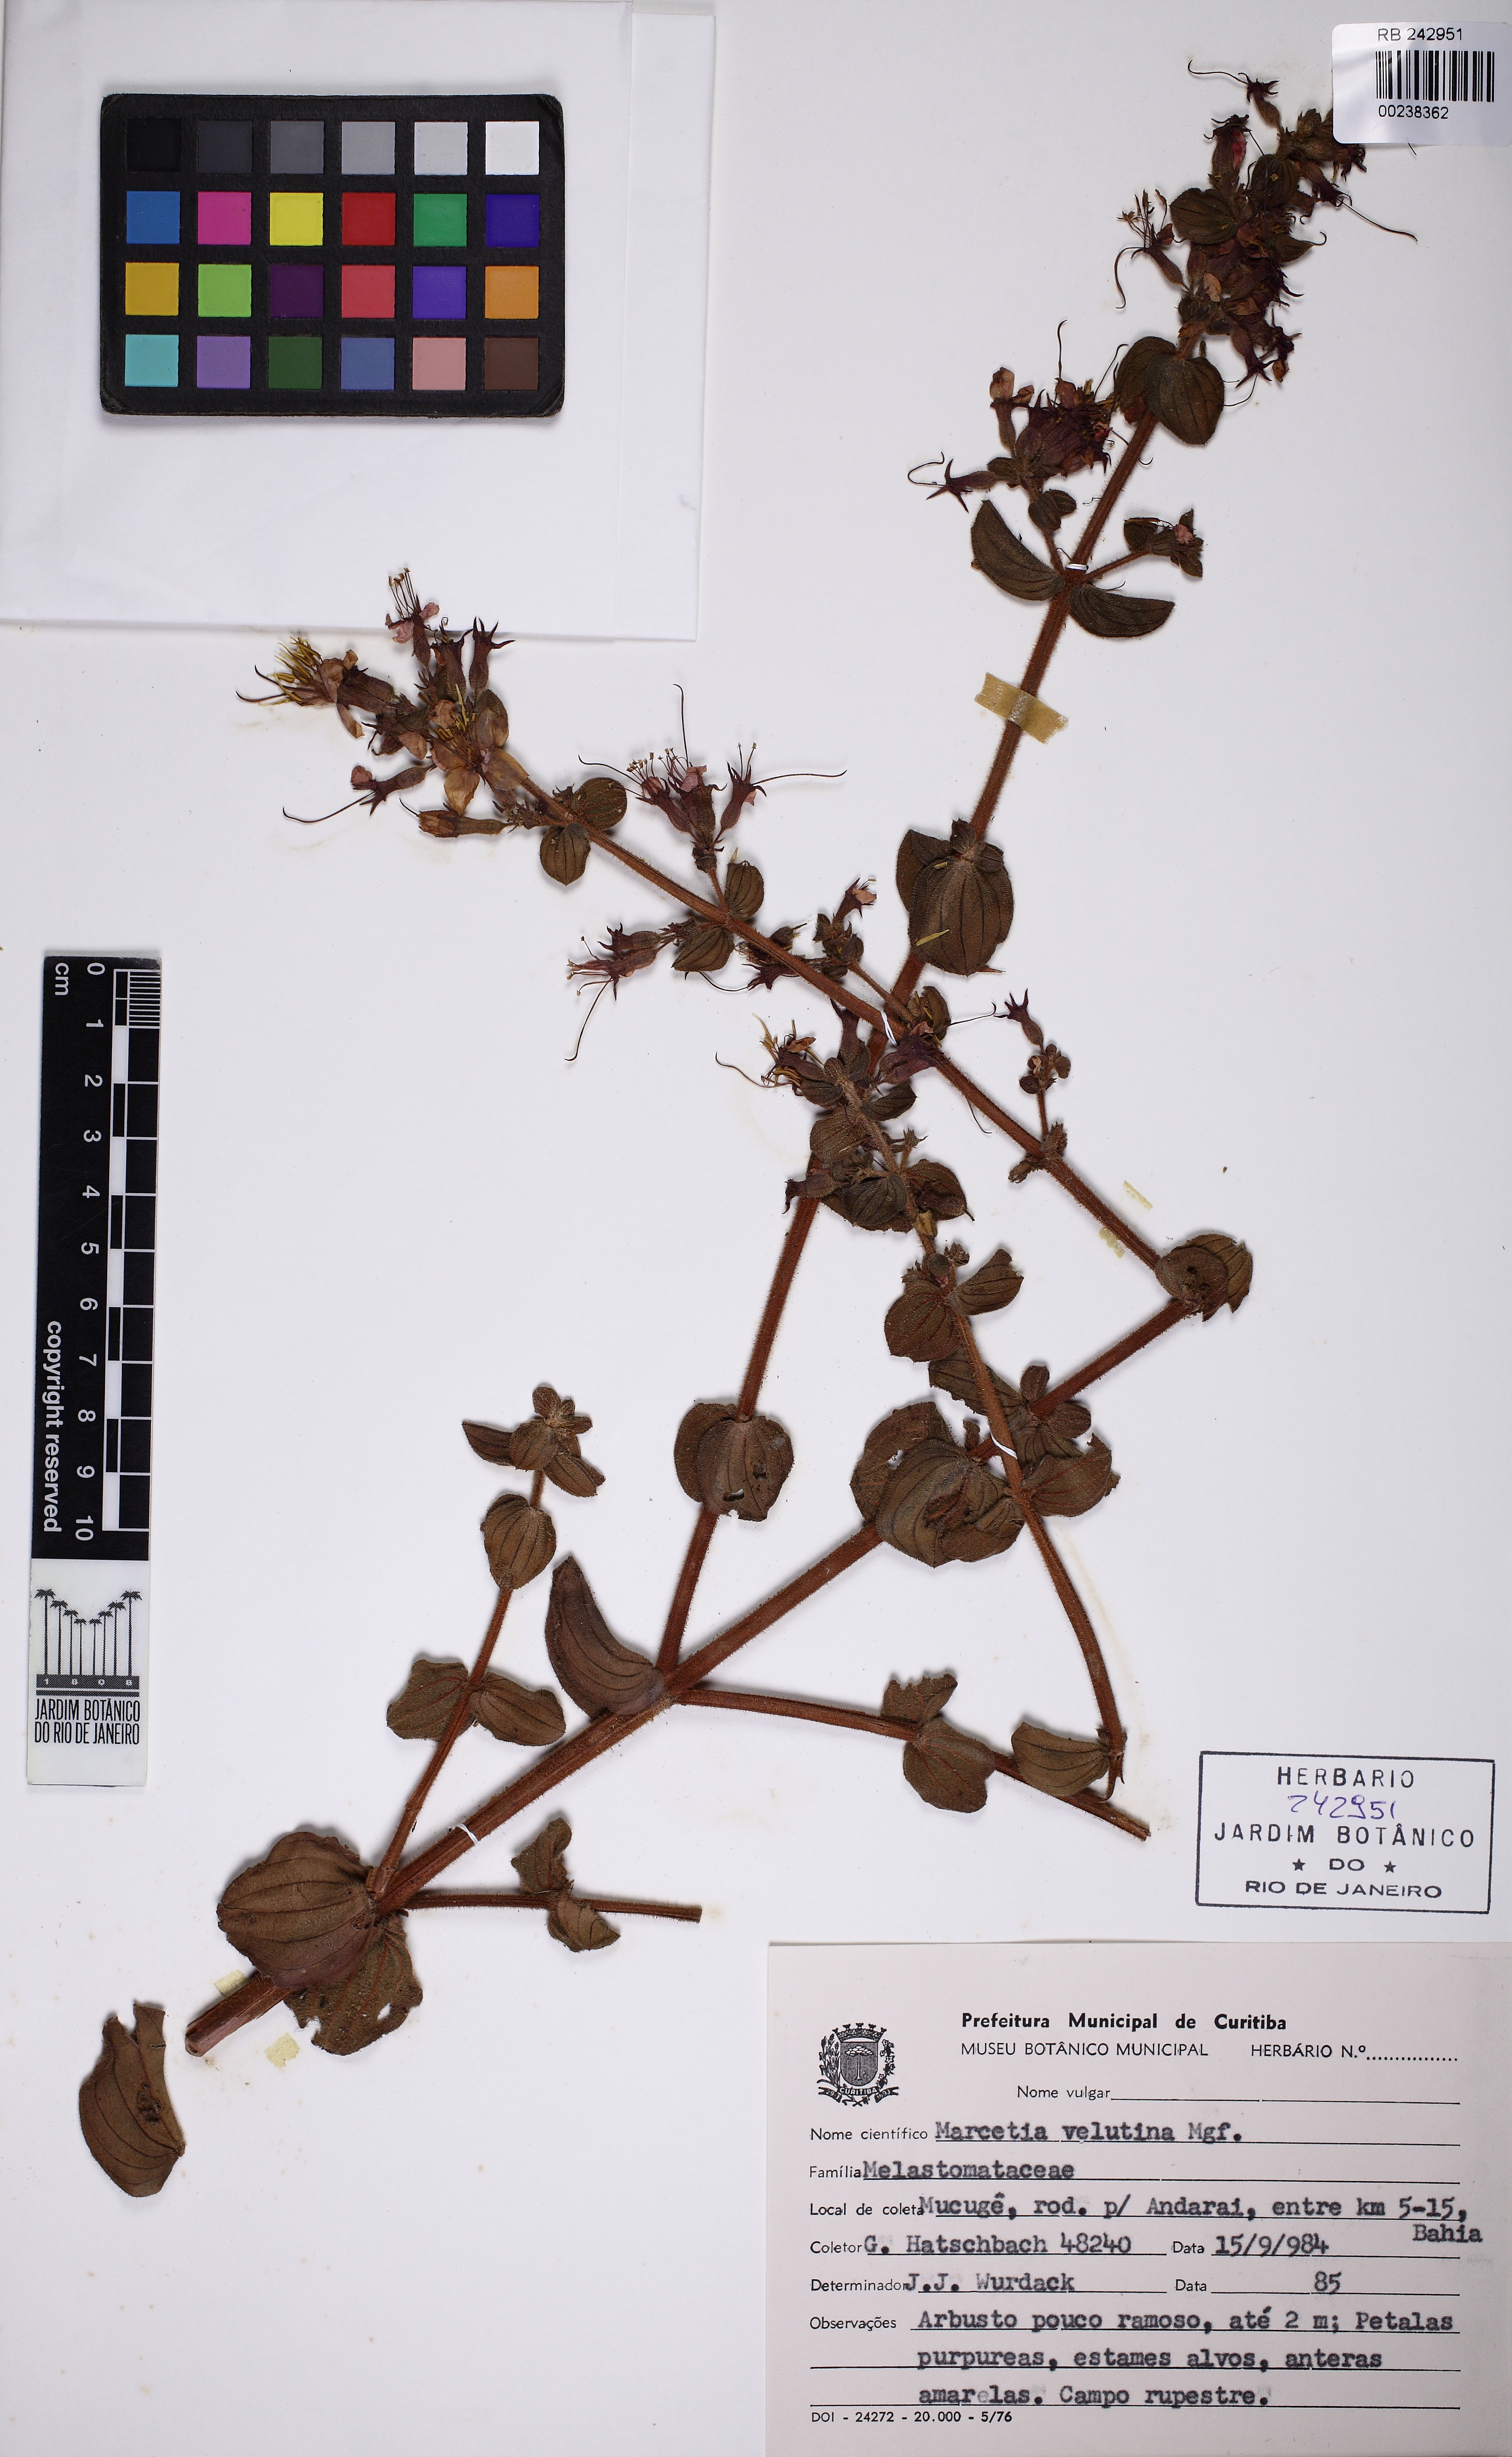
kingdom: Plantae
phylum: Tracheophyta
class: Magnoliopsida
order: Myrtales
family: Melastomataceae
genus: Marcetia
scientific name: Marcetia velutina
